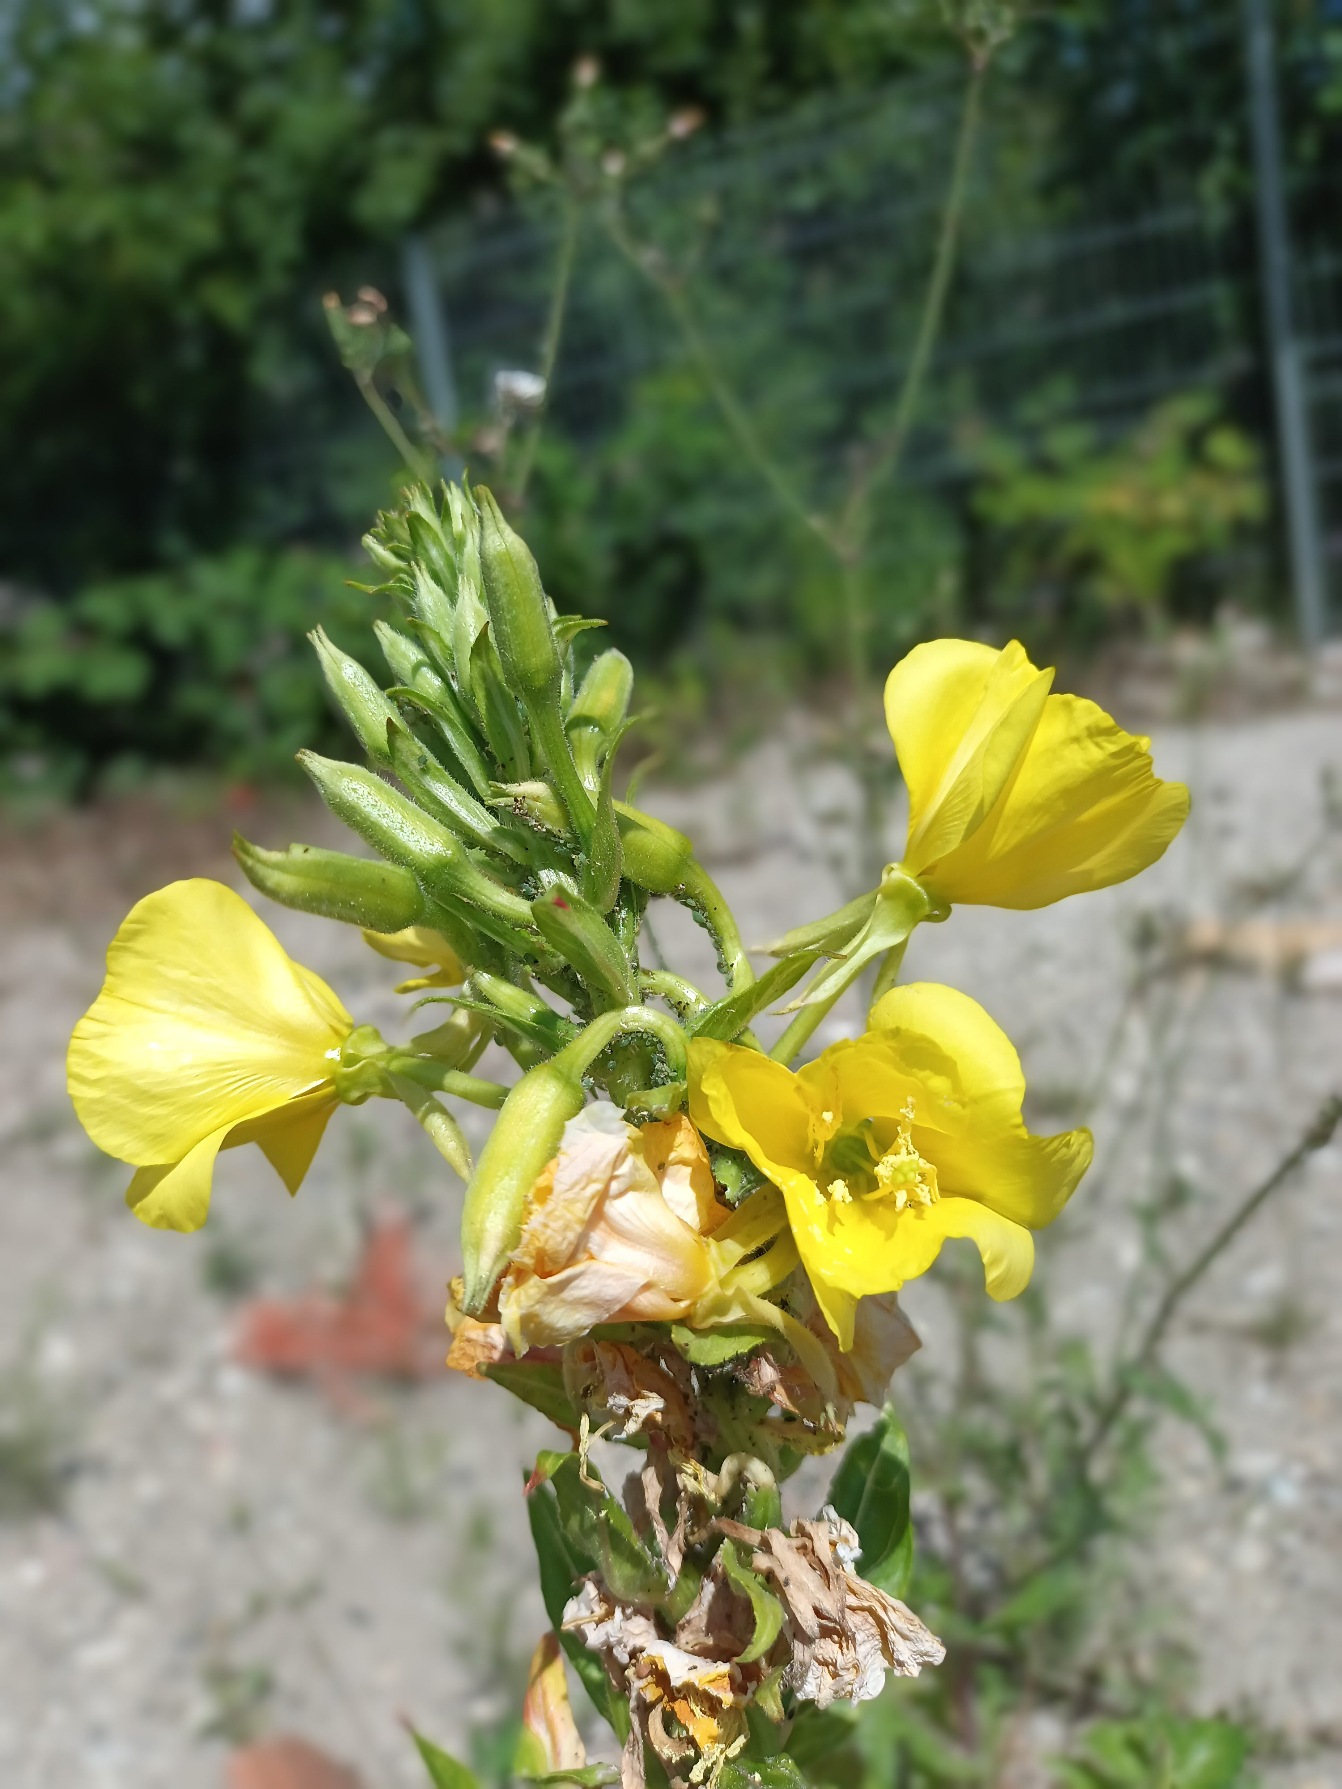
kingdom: Plantae
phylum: Tracheophyta
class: Magnoliopsida
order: Myrtales
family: Onagraceae
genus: Oenothera
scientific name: Oenothera biennis
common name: Toårig natlys
